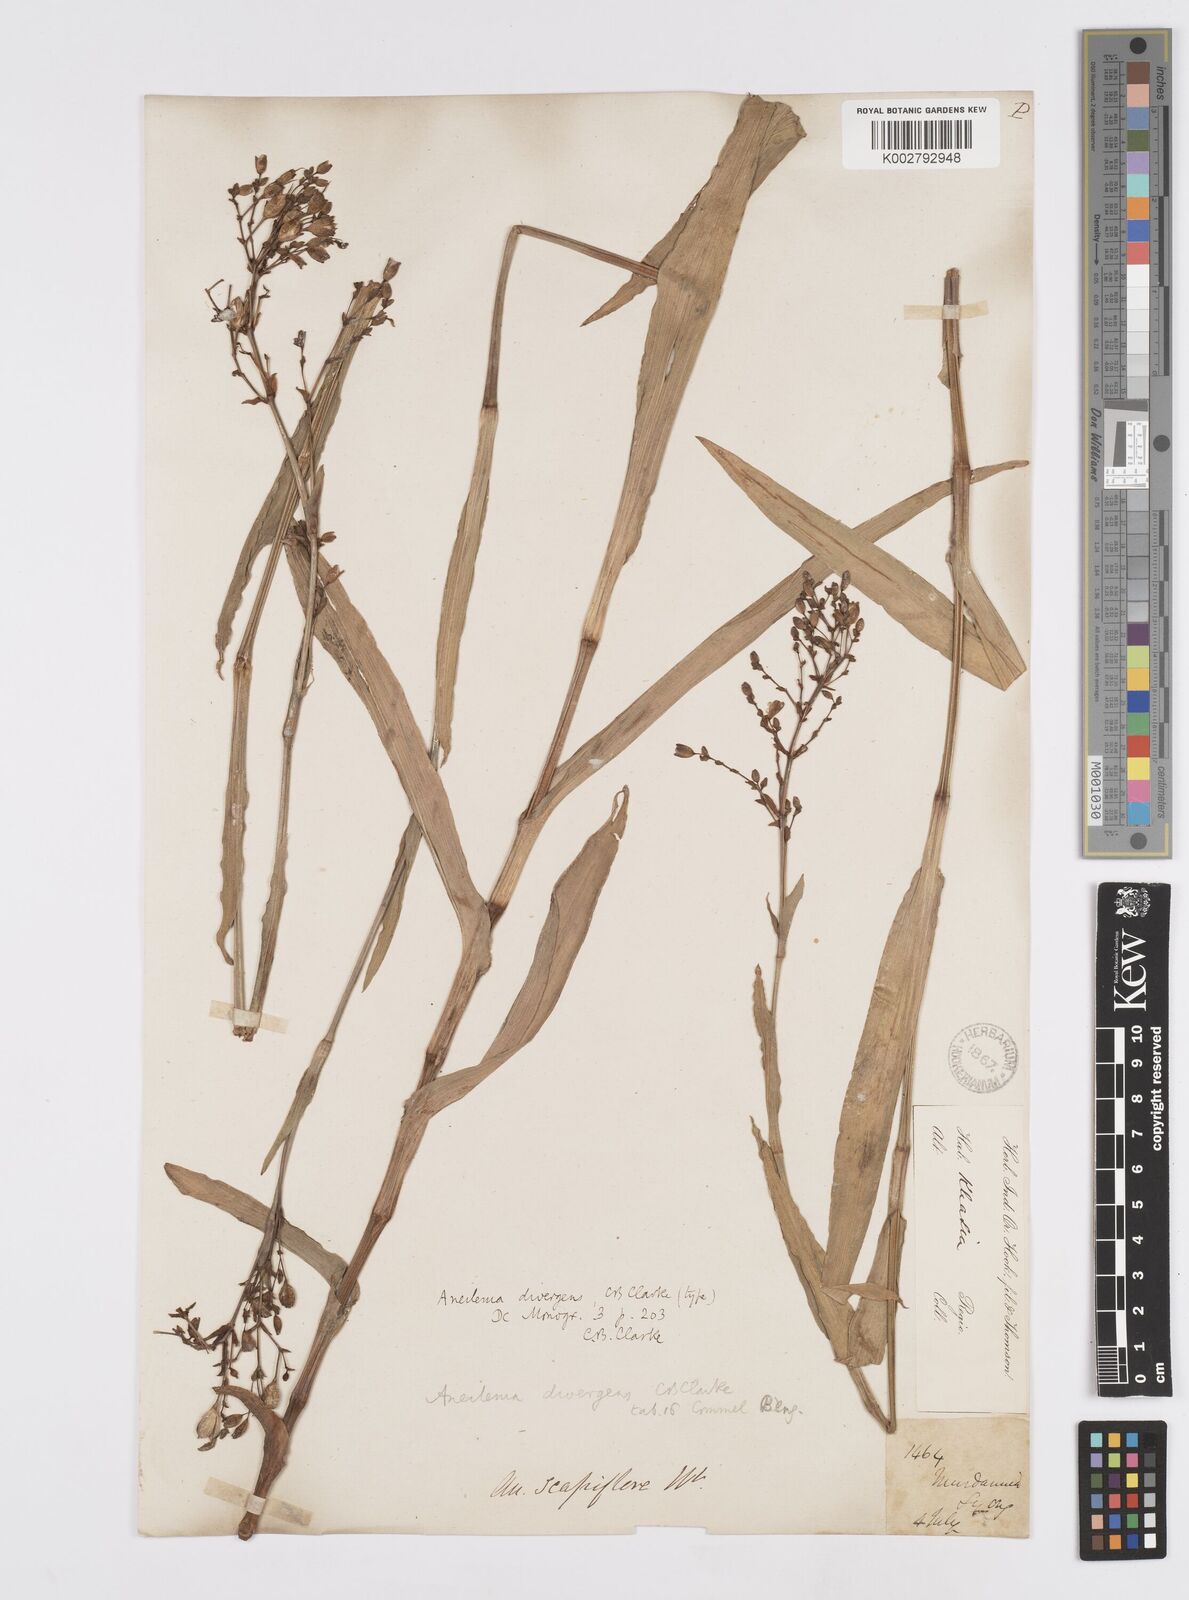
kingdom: Plantae
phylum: Tracheophyta
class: Liliopsida
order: Commelinales
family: Commelinaceae
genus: Murdannia
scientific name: Murdannia divergens
